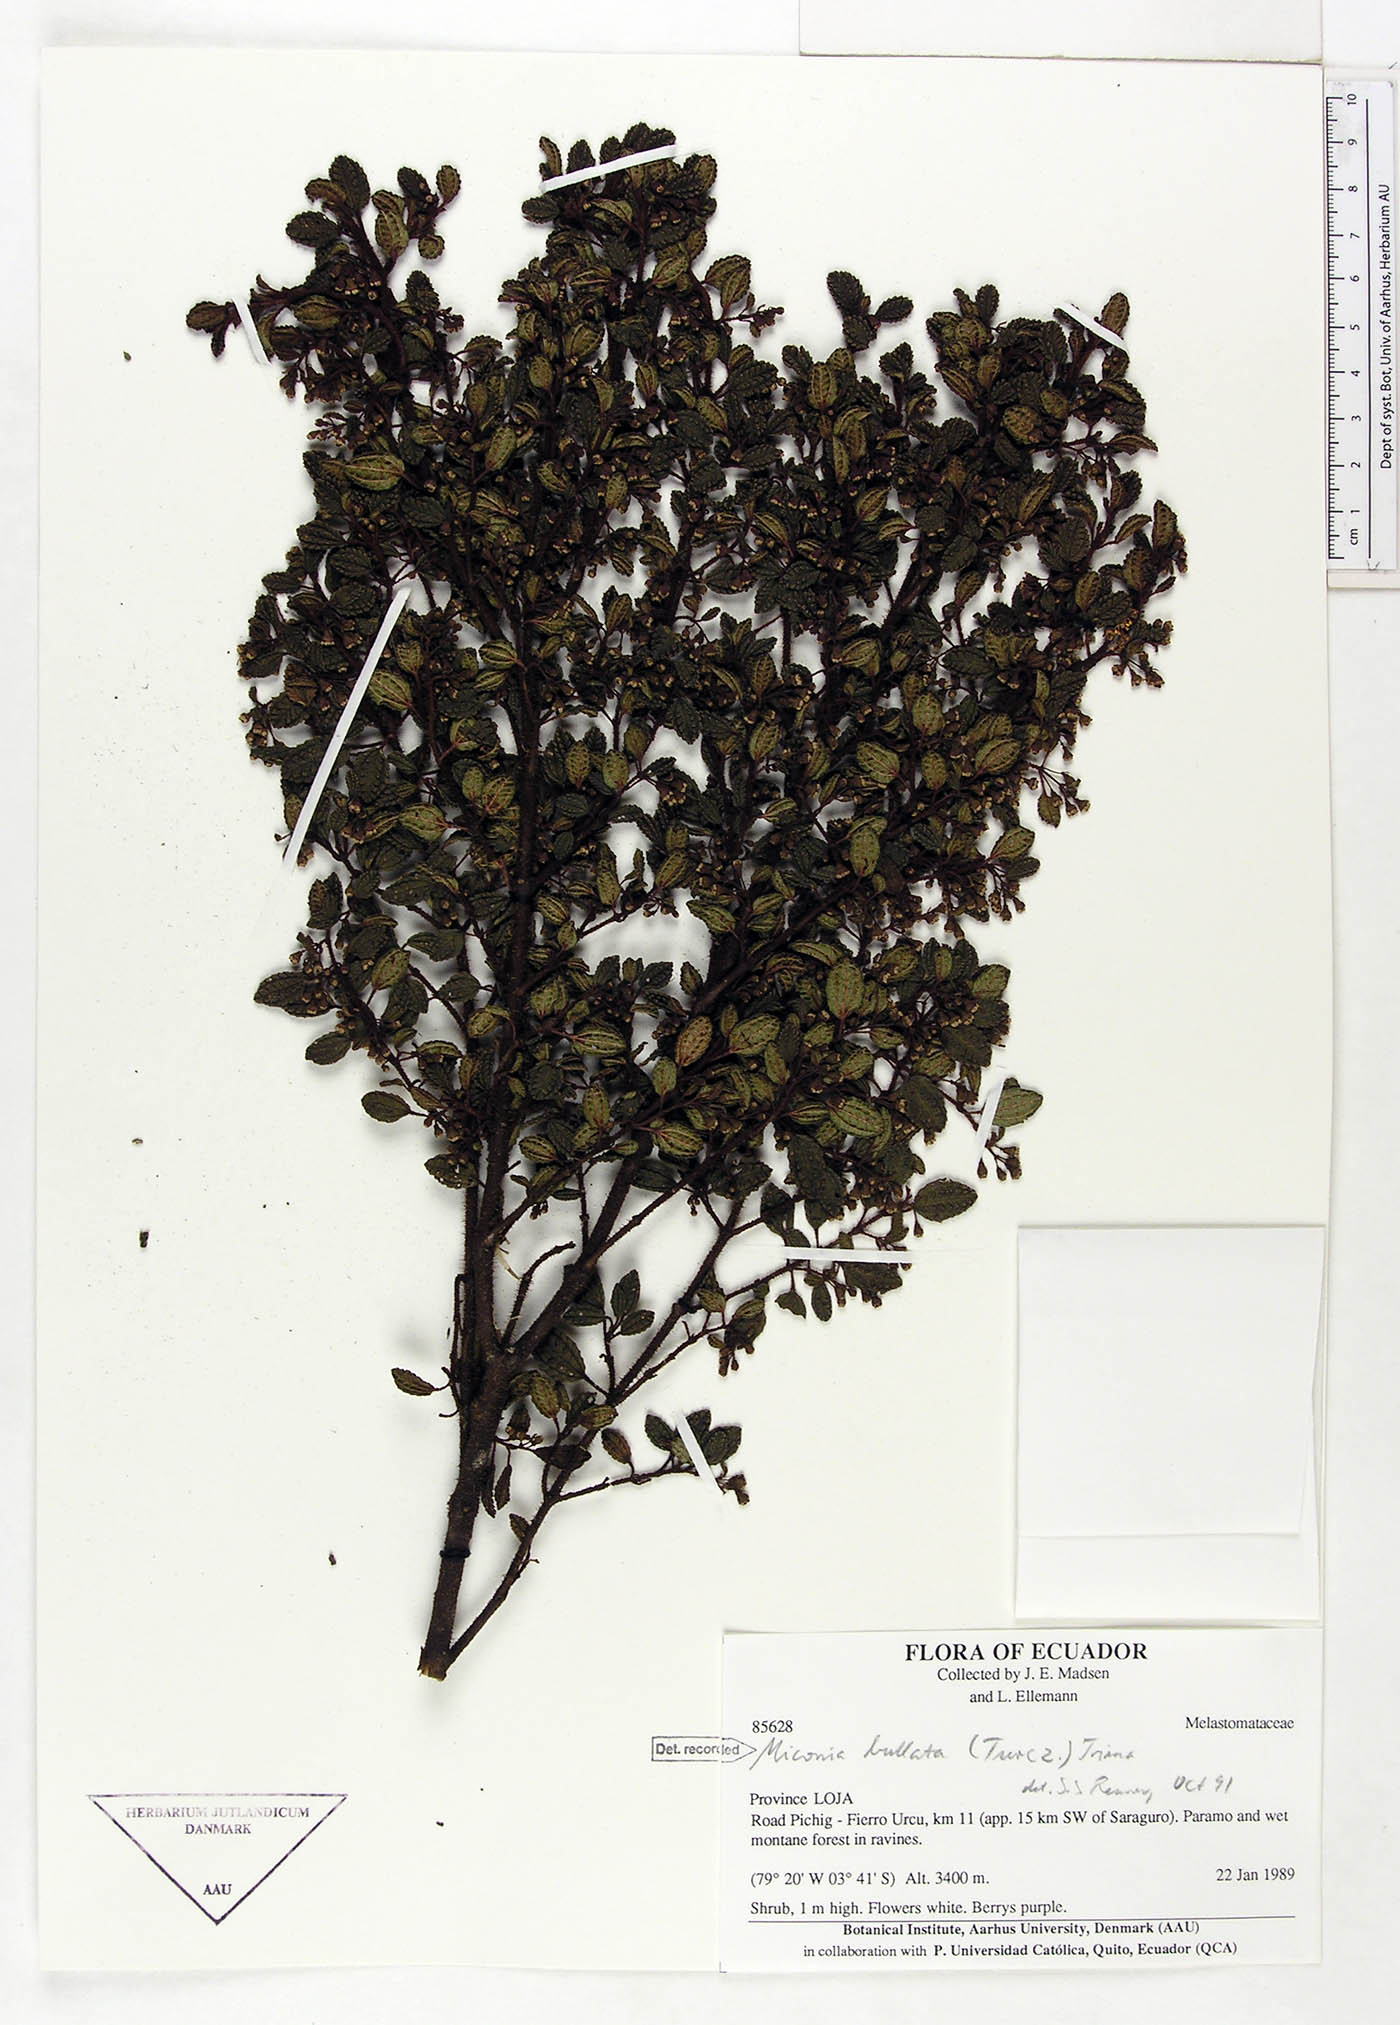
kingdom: Plantae
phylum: Tracheophyta
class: Magnoliopsida
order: Myrtales
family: Melastomataceae
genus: Miconia
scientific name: Miconia bullata
